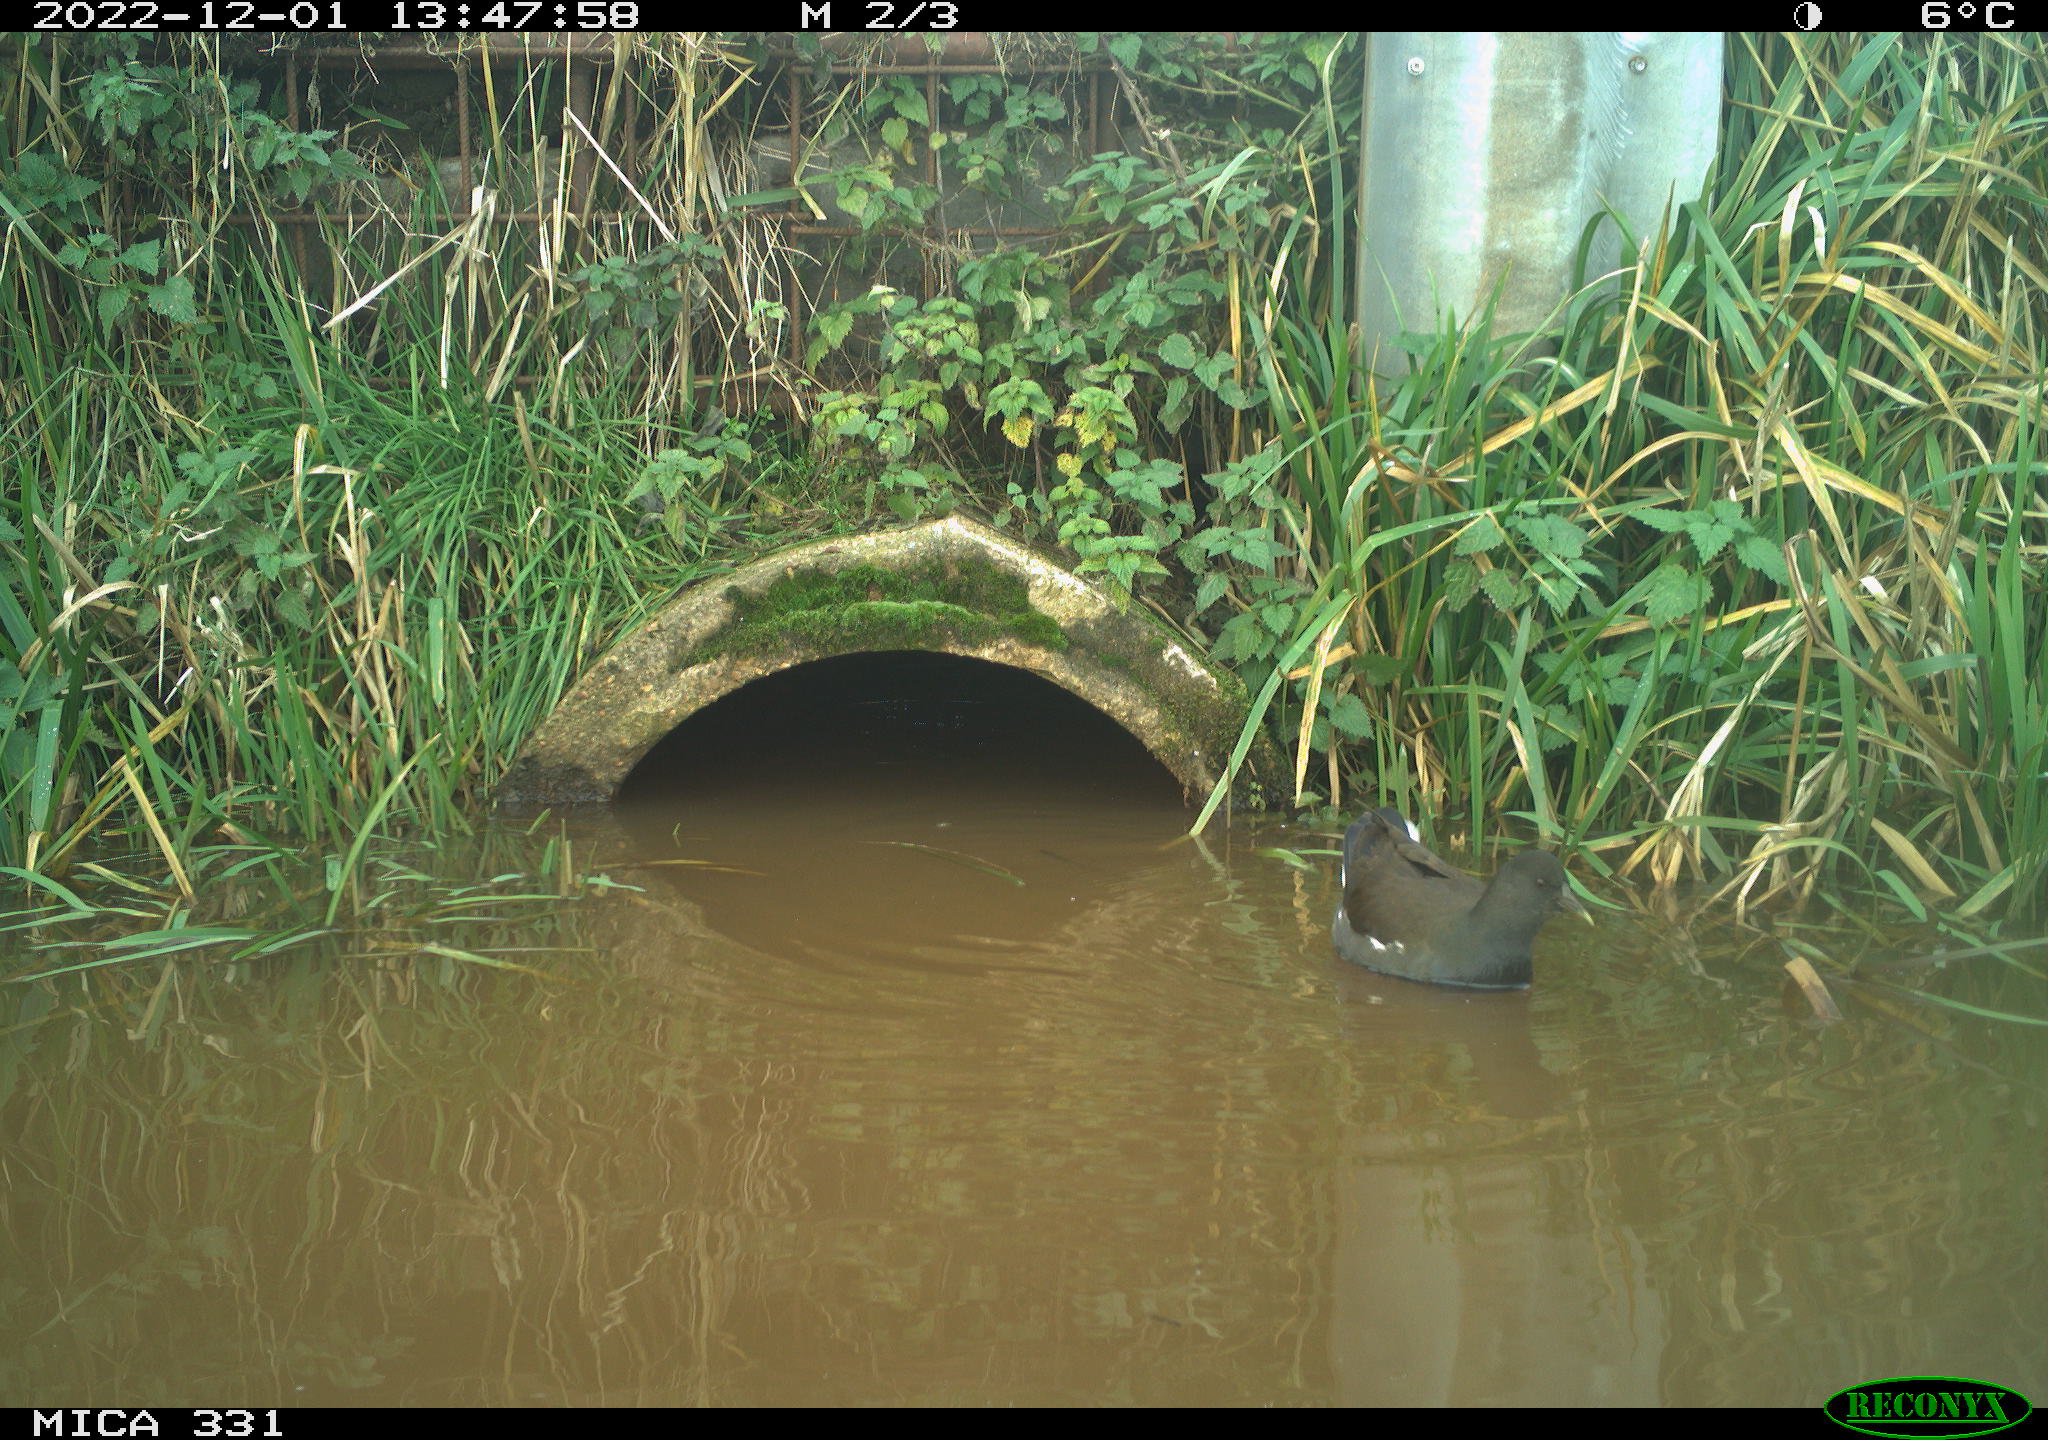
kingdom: Animalia
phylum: Chordata
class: Aves
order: Gruiformes
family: Rallidae
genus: Gallinula
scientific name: Gallinula chloropus
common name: Common moorhen
